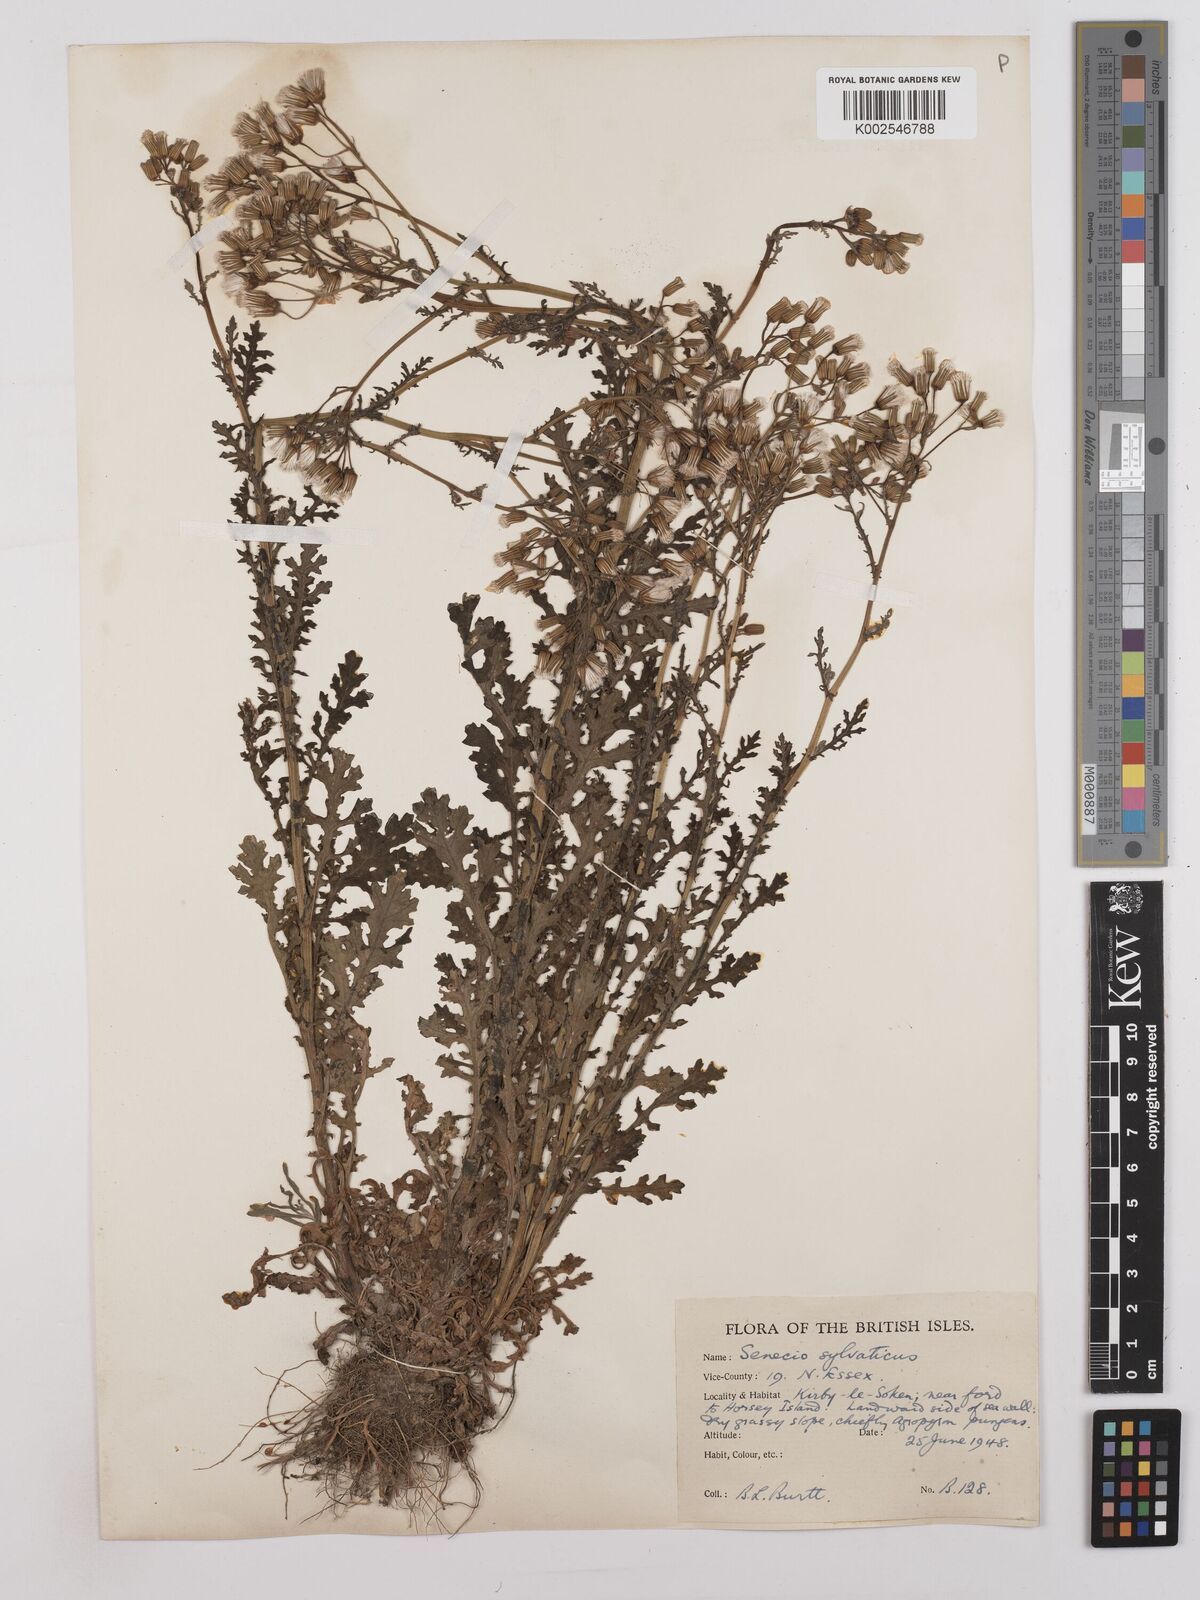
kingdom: Plantae
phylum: Tracheophyta
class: Magnoliopsida
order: Asterales
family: Asteraceae
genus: Senecio
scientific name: Senecio sylvaticus
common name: Woodland ragwort
